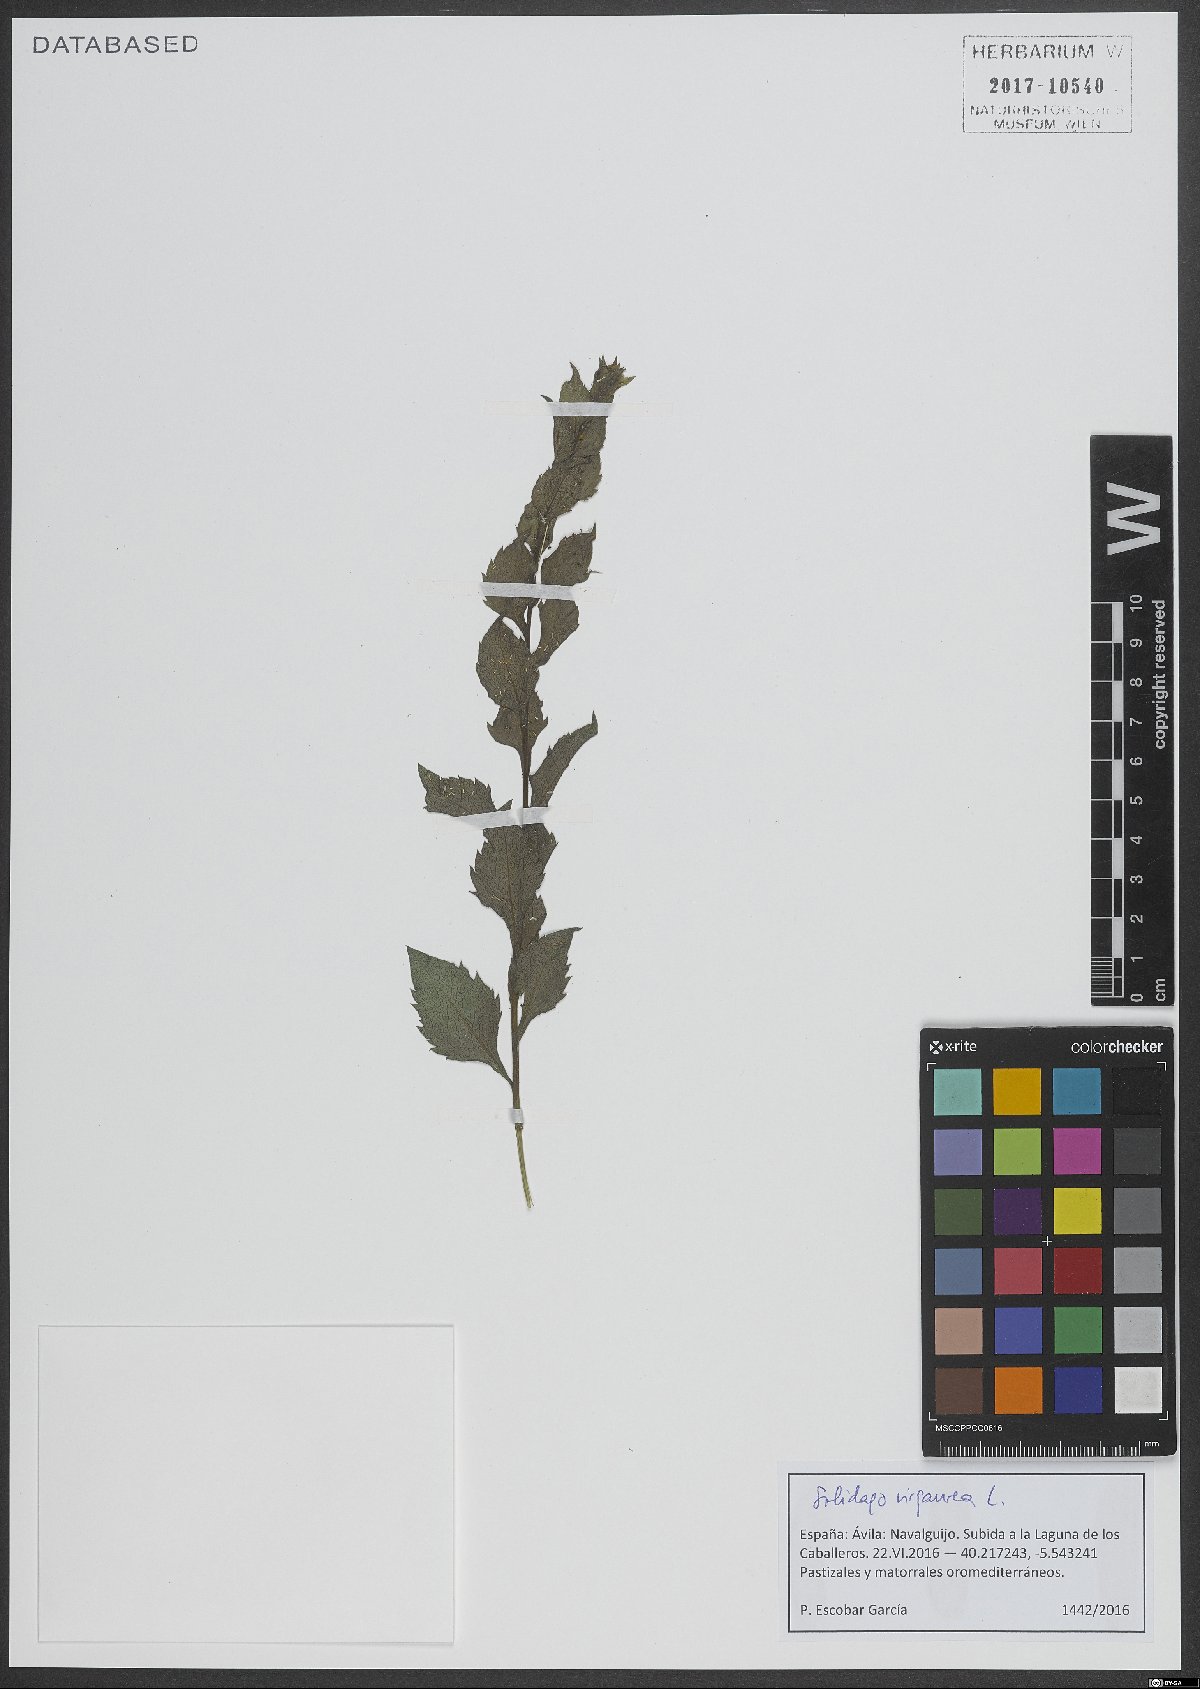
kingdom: Plantae
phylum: Tracheophyta
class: Magnoliopsida
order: Asterales
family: Asteraceae
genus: Solidago
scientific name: Solidago virgaurea
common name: Goldenrod
